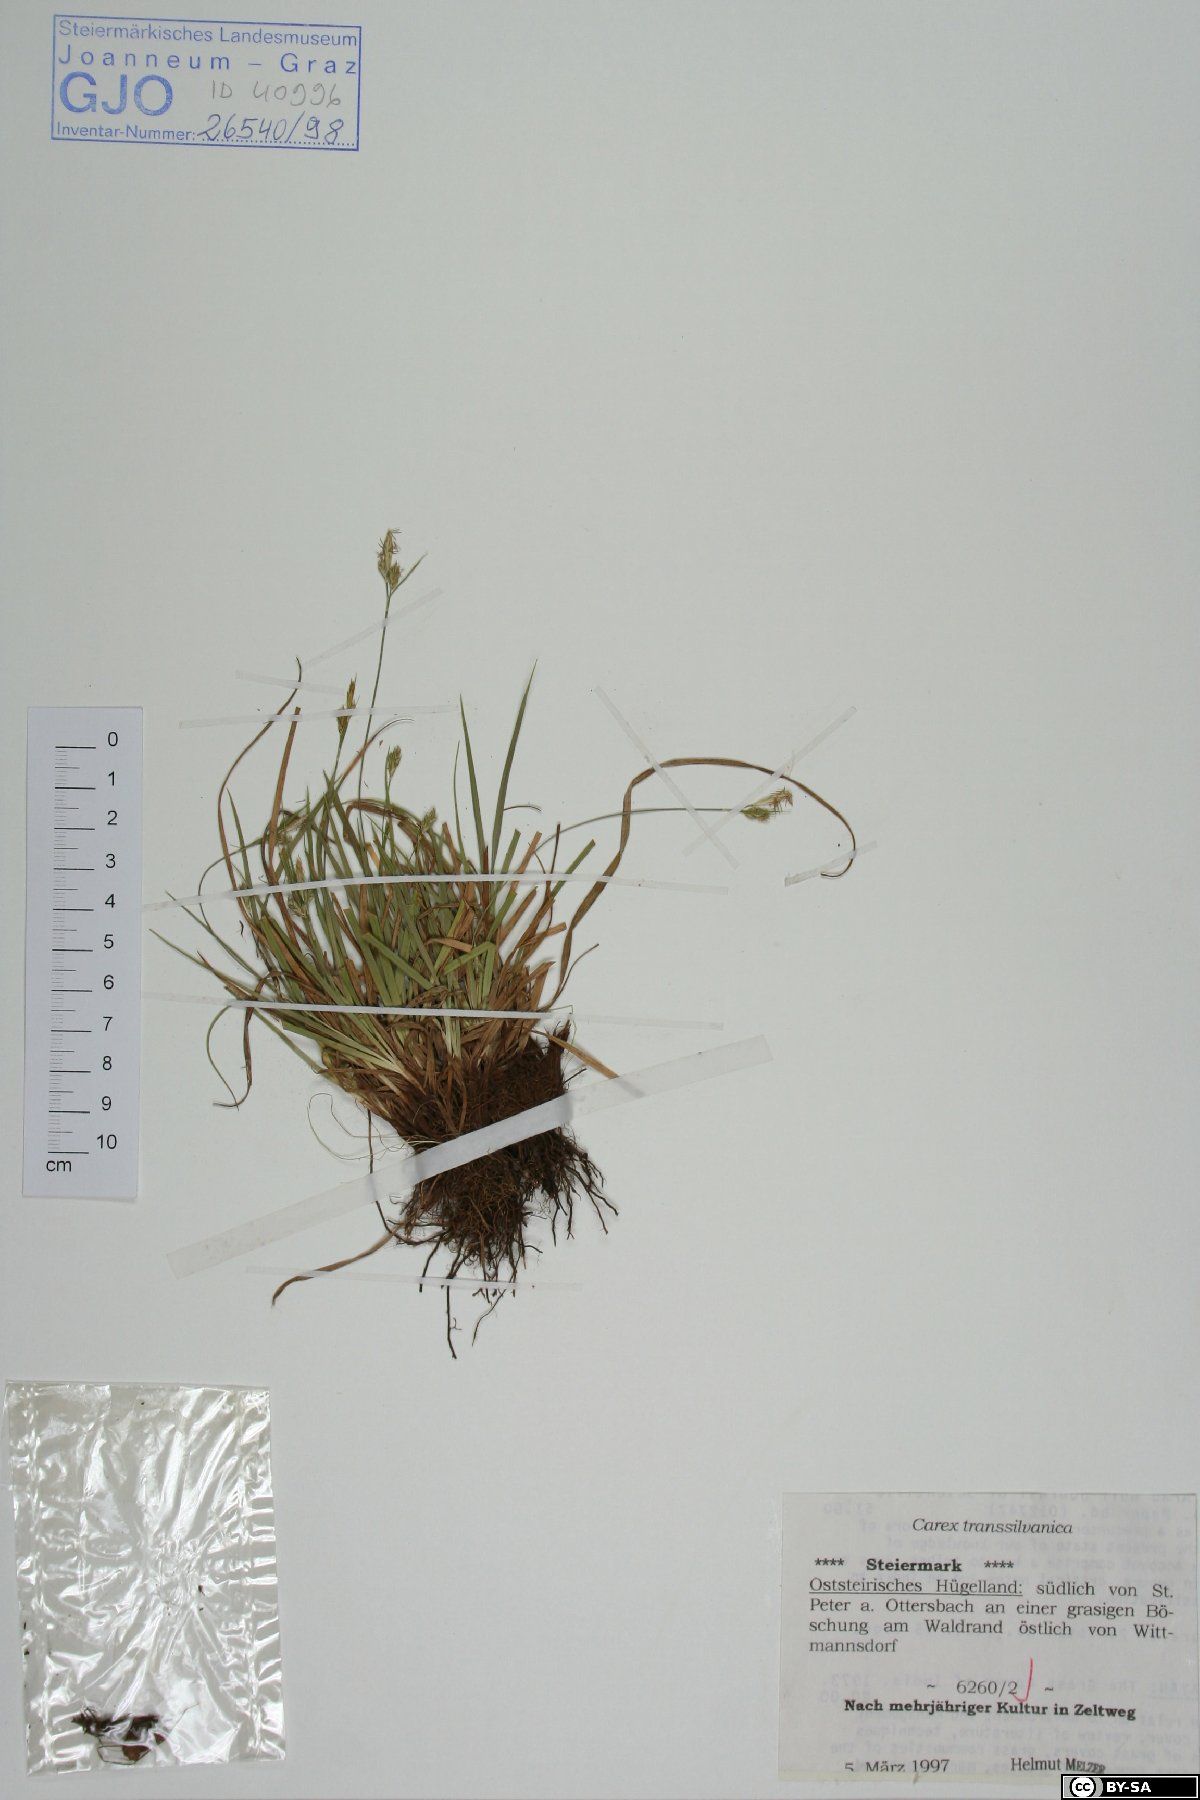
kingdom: Plantae
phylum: Tracheophyta
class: Liliopsida
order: Poales
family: Cyperaceae
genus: Carex
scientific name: Carex depressa
